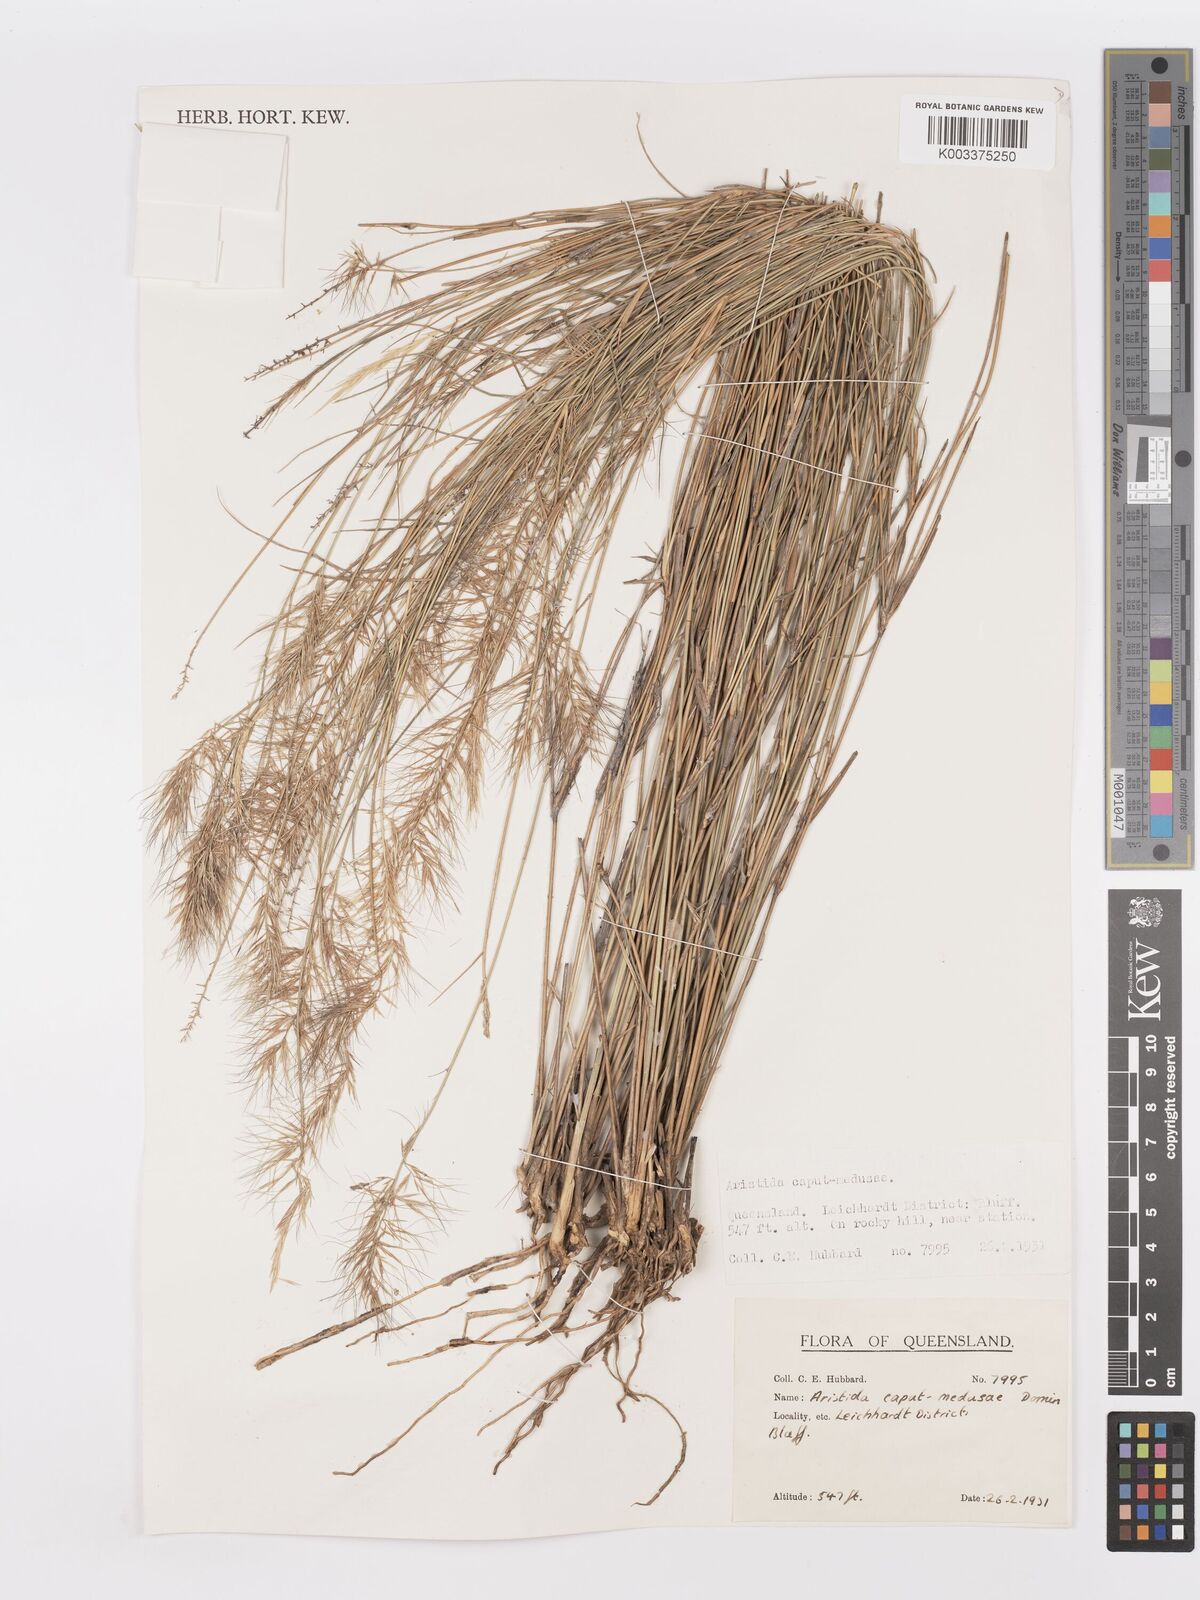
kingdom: Plantae
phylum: Tracheophyta
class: Liliopsida
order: Poales
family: Poaceae
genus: Aristida
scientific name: Aristida caput-medusae
